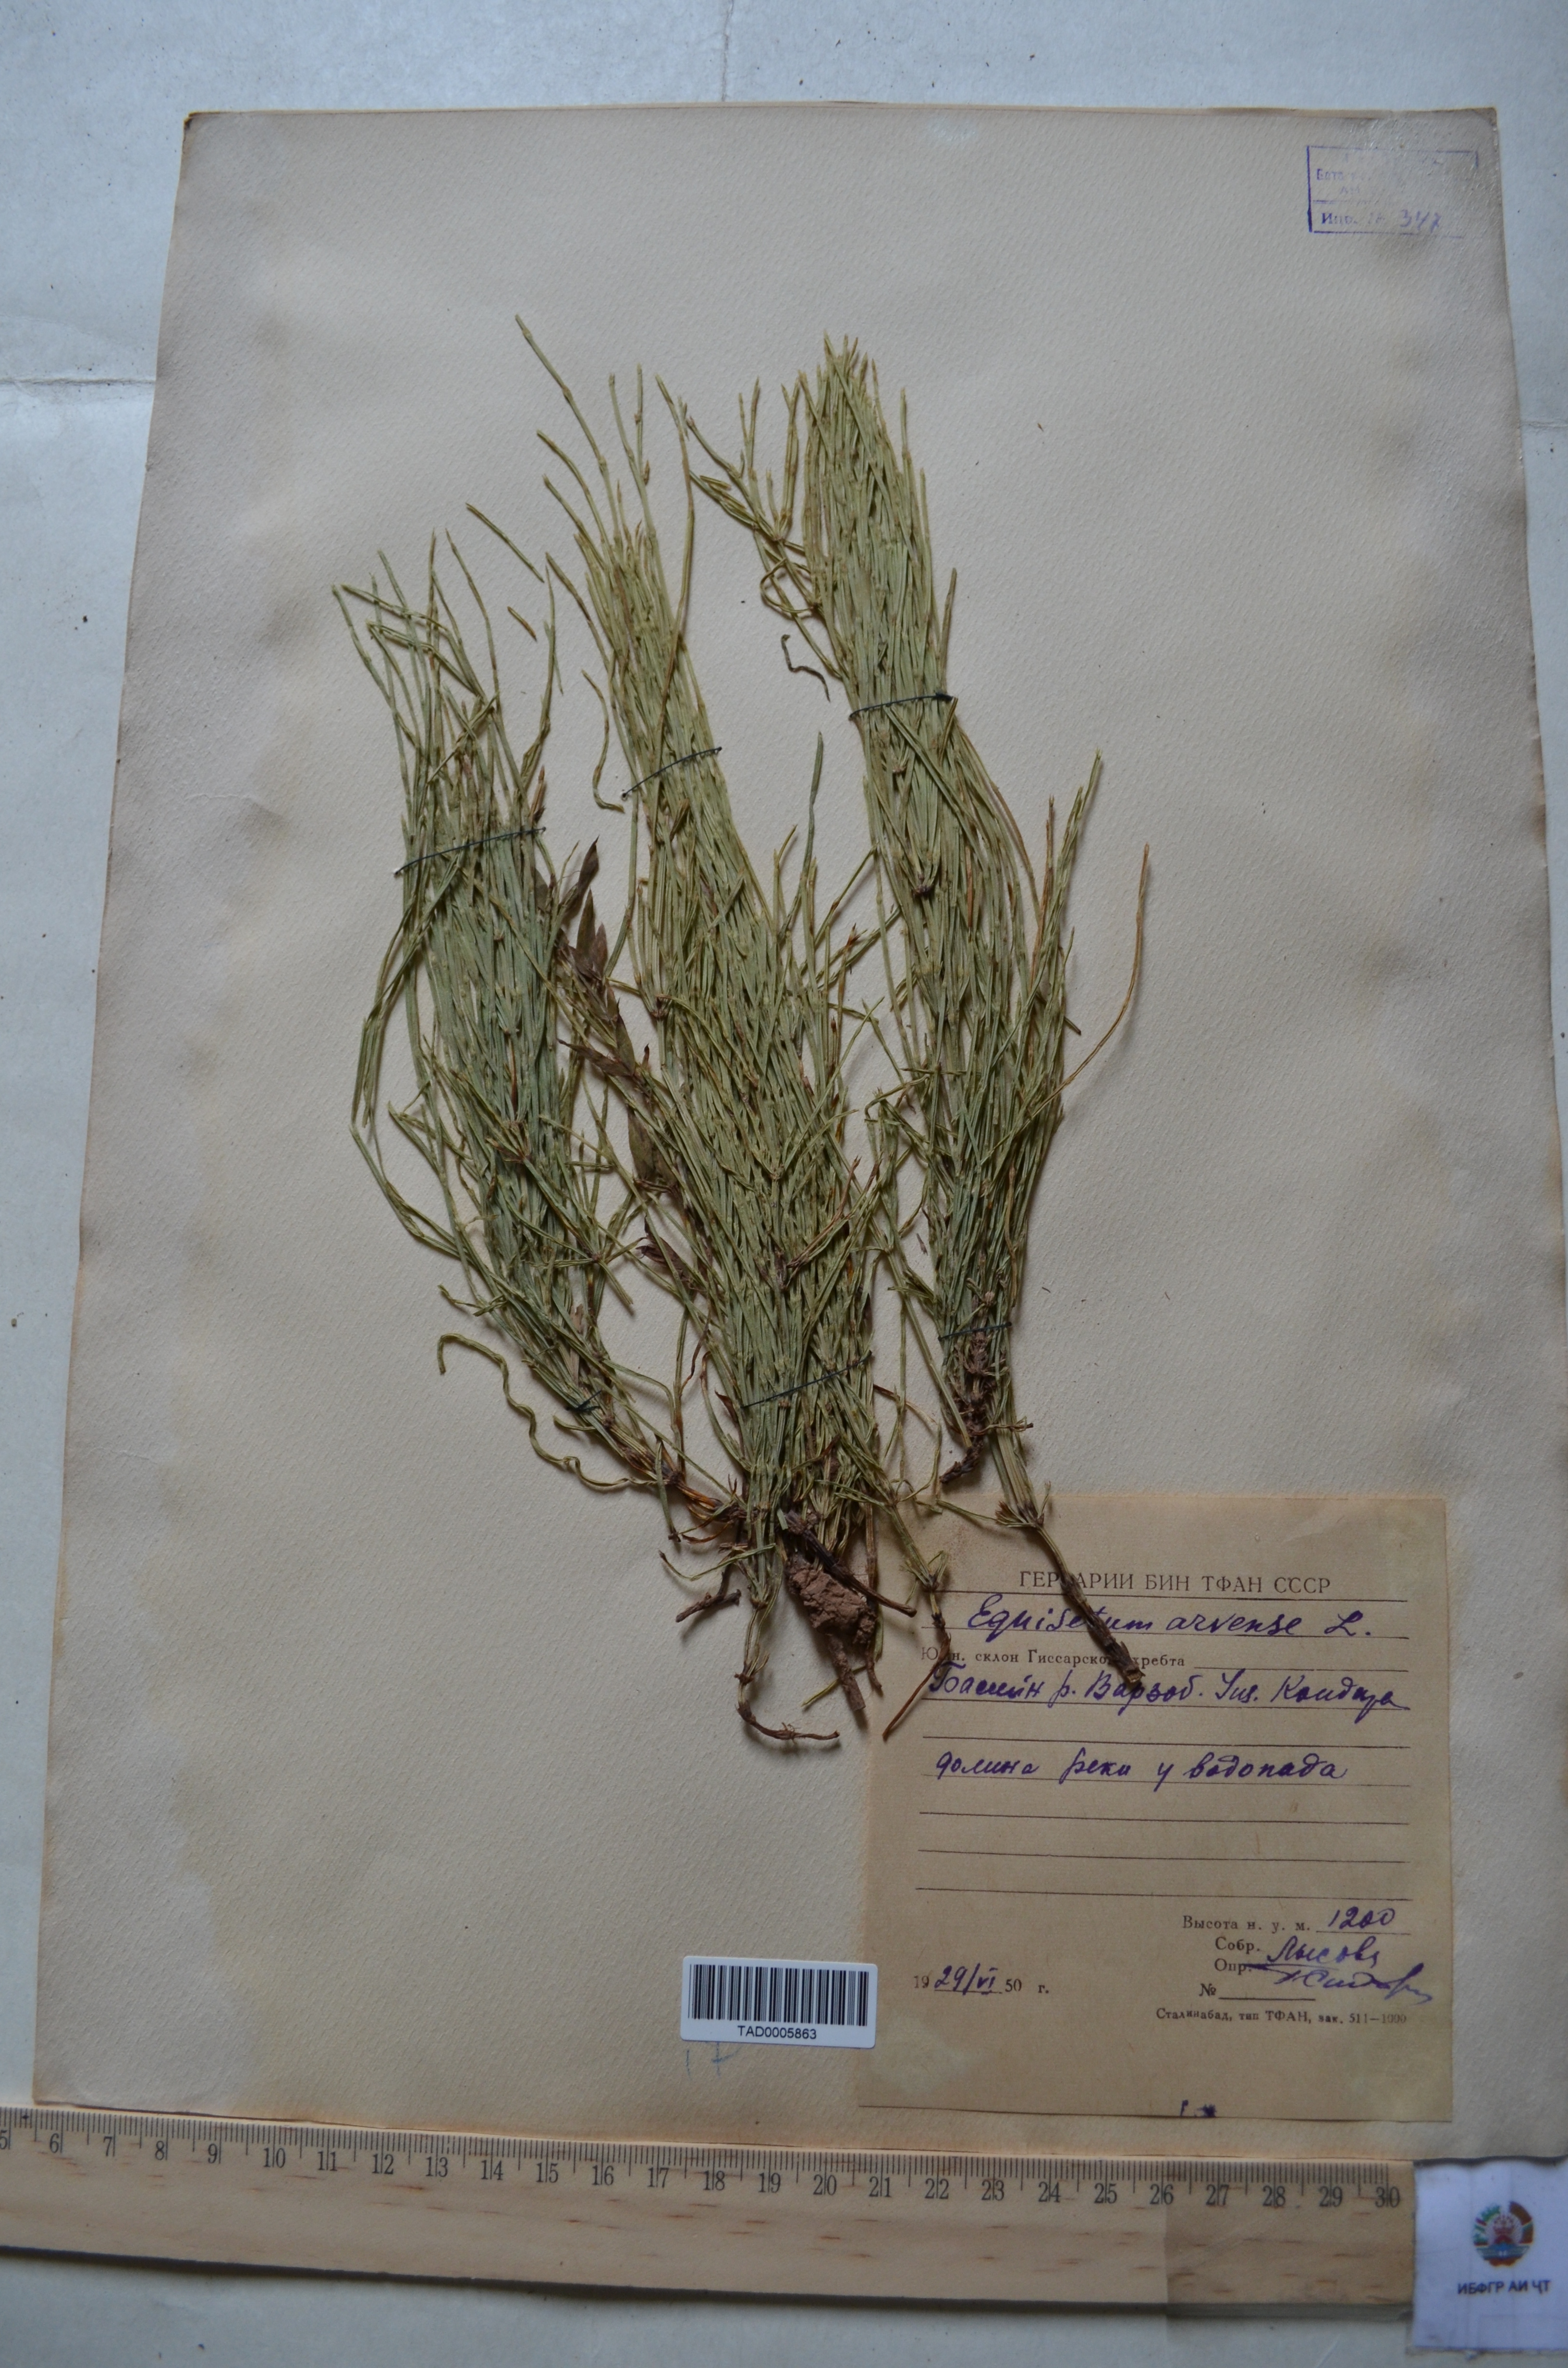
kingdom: Plantae
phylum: Tracheophyta
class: Polypodiopsida
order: Equisetales
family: Equisetaceae
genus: Equisetum
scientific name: Equisetum arvense
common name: Field horsetail
